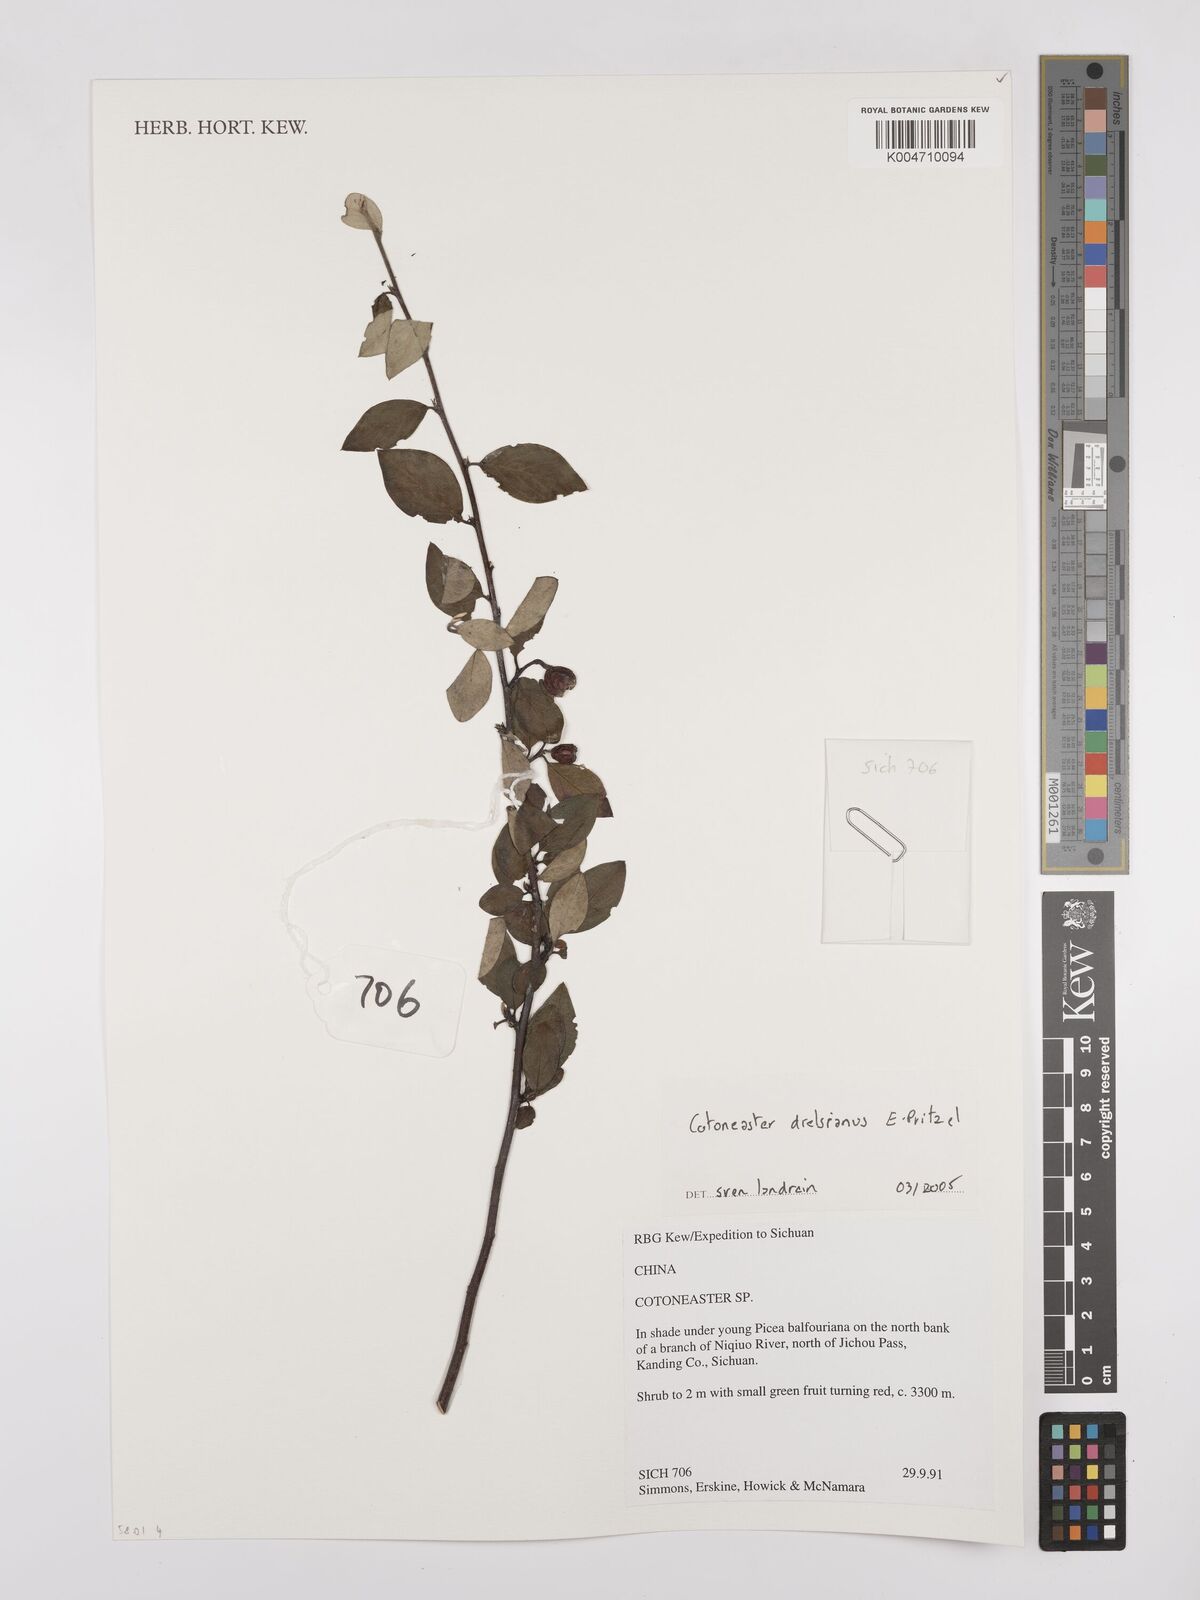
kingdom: Plantae
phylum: Tracheophyta
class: Magnoliopsida
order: Rosales
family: Rosaceae
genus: Cotoneaster
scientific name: Cotoneaster dielsianus
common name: Diels's cotoneaster
